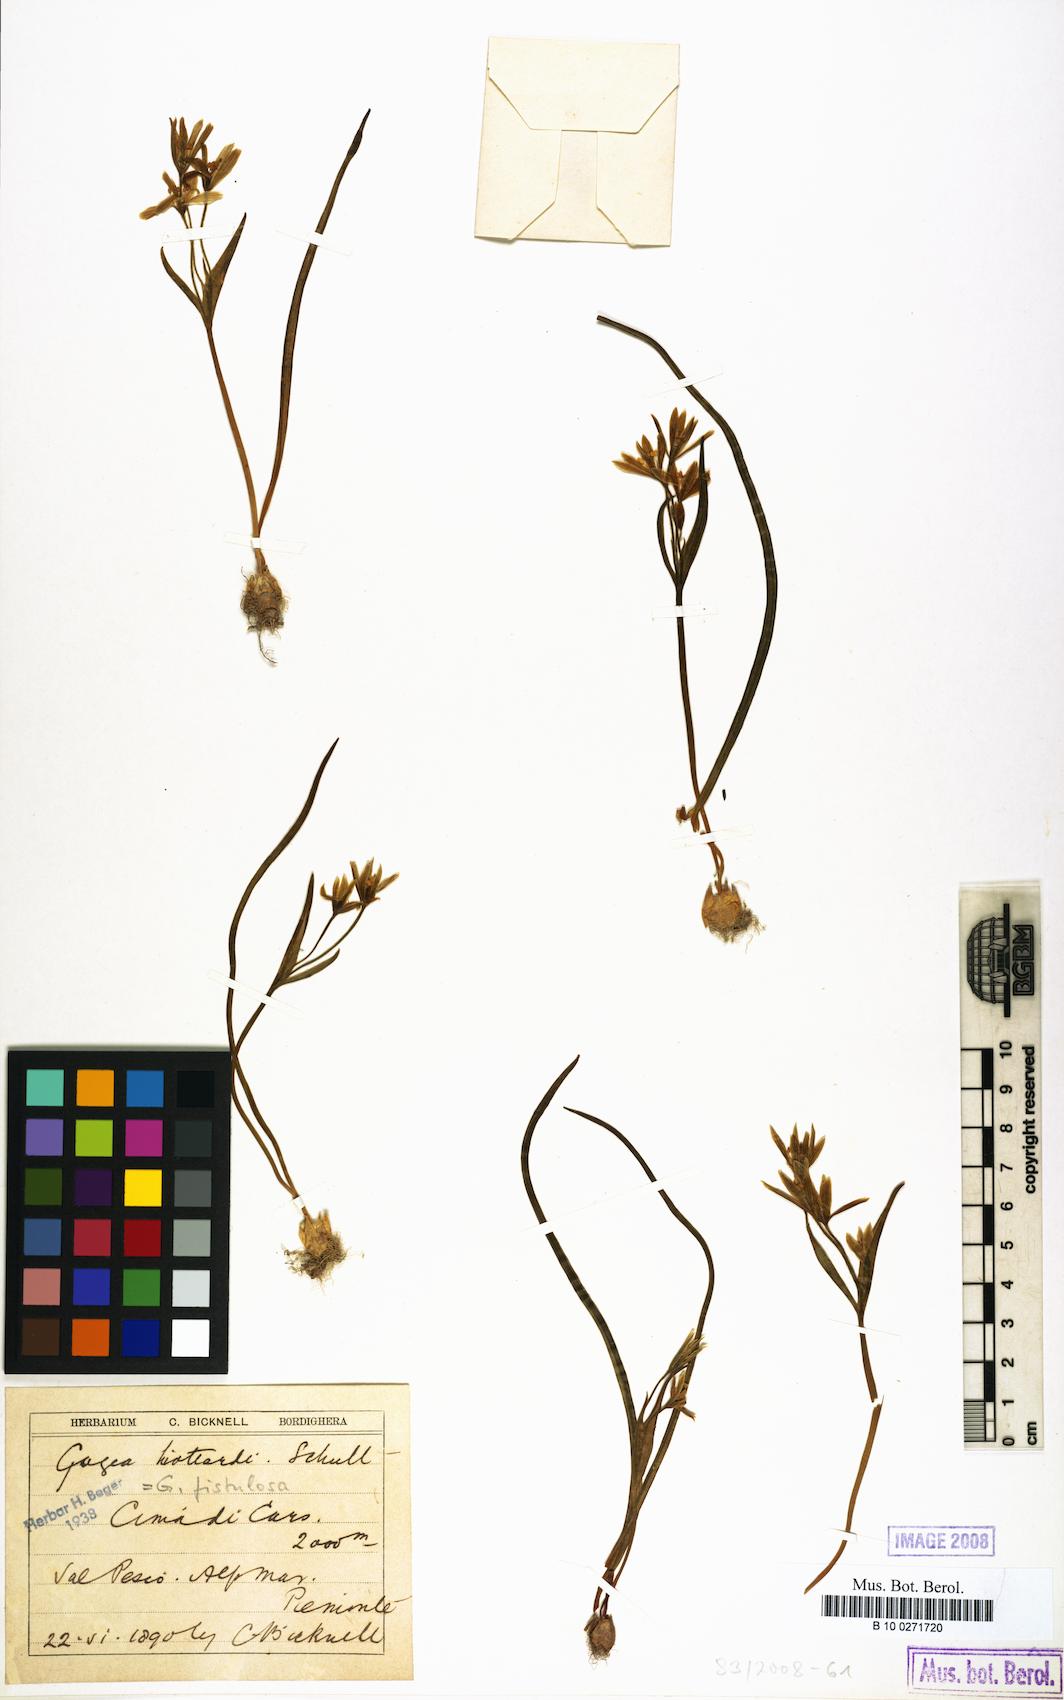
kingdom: Plantae
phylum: Tracheophyta
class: Liliopsida
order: Liliales
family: Liliaceae
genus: Gagea
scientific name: Gagea bohemica
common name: Early star-of-bethlehem
